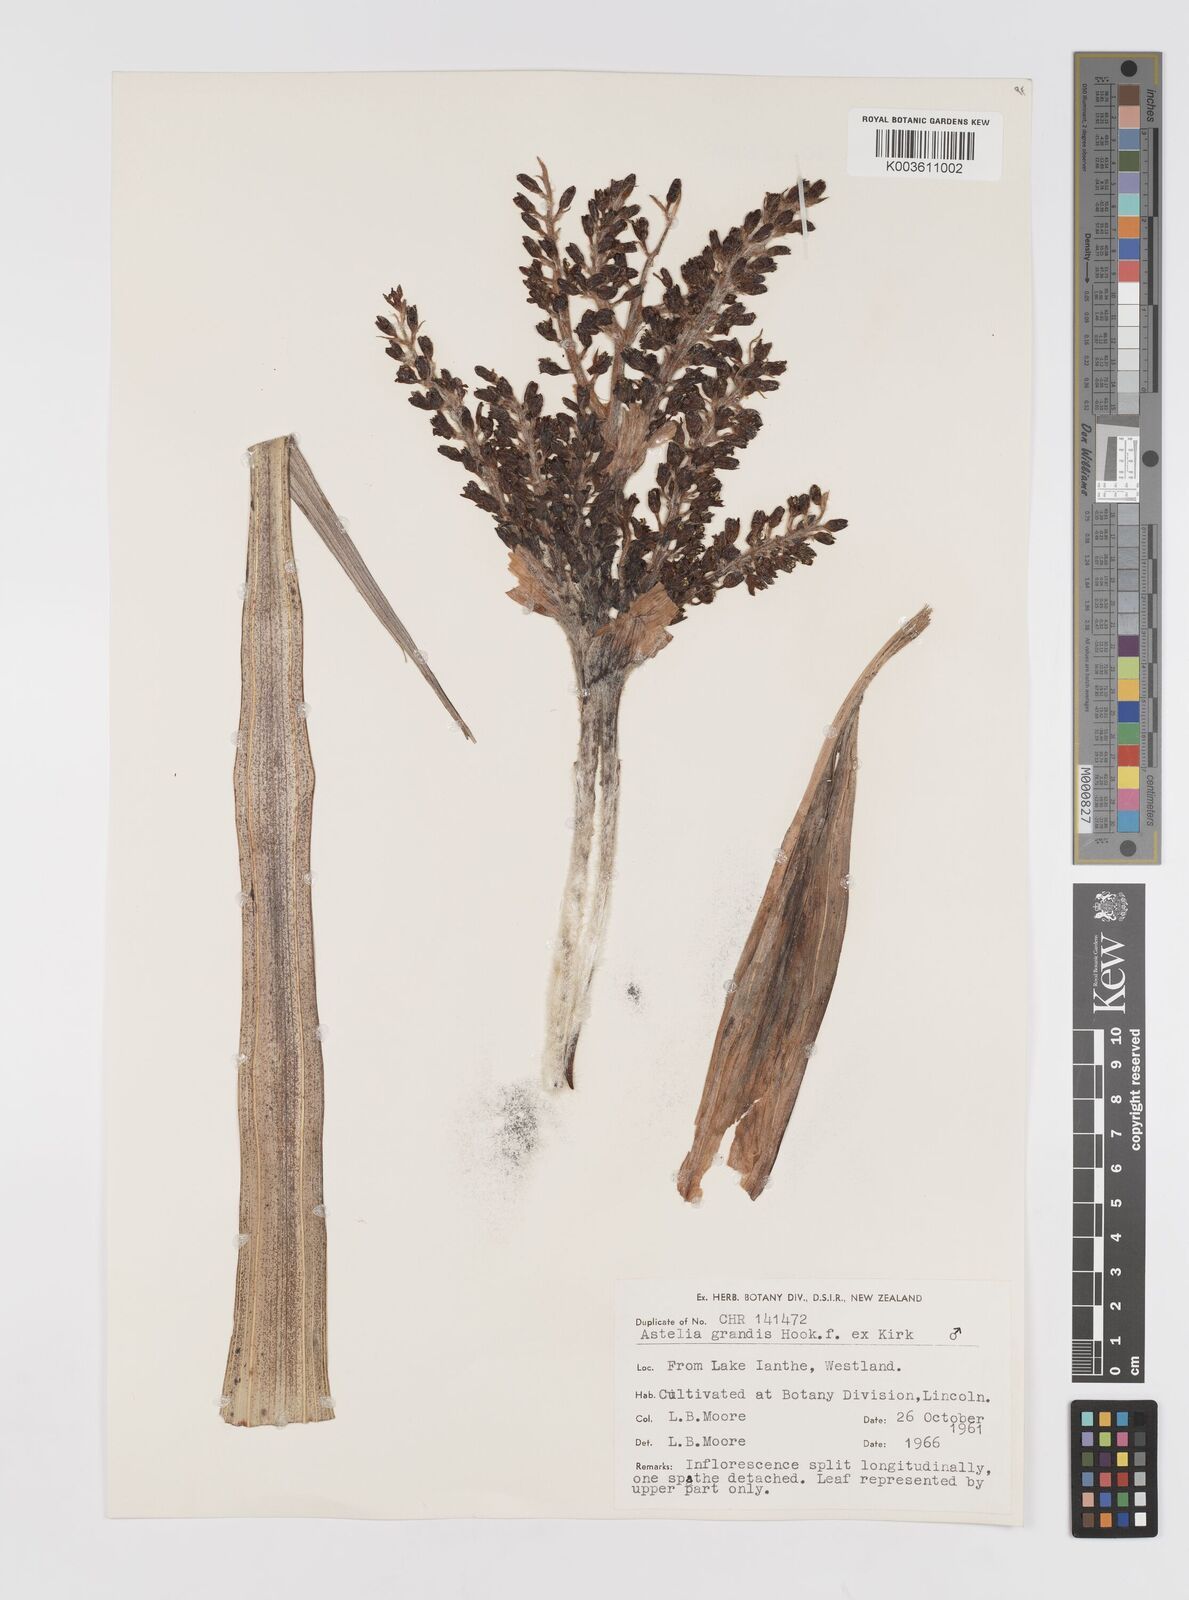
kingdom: Plantae
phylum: Tracheophyta
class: Liliopsida
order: Asparagales
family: Asteliaceae
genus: Astelia
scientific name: Astelia grandis
